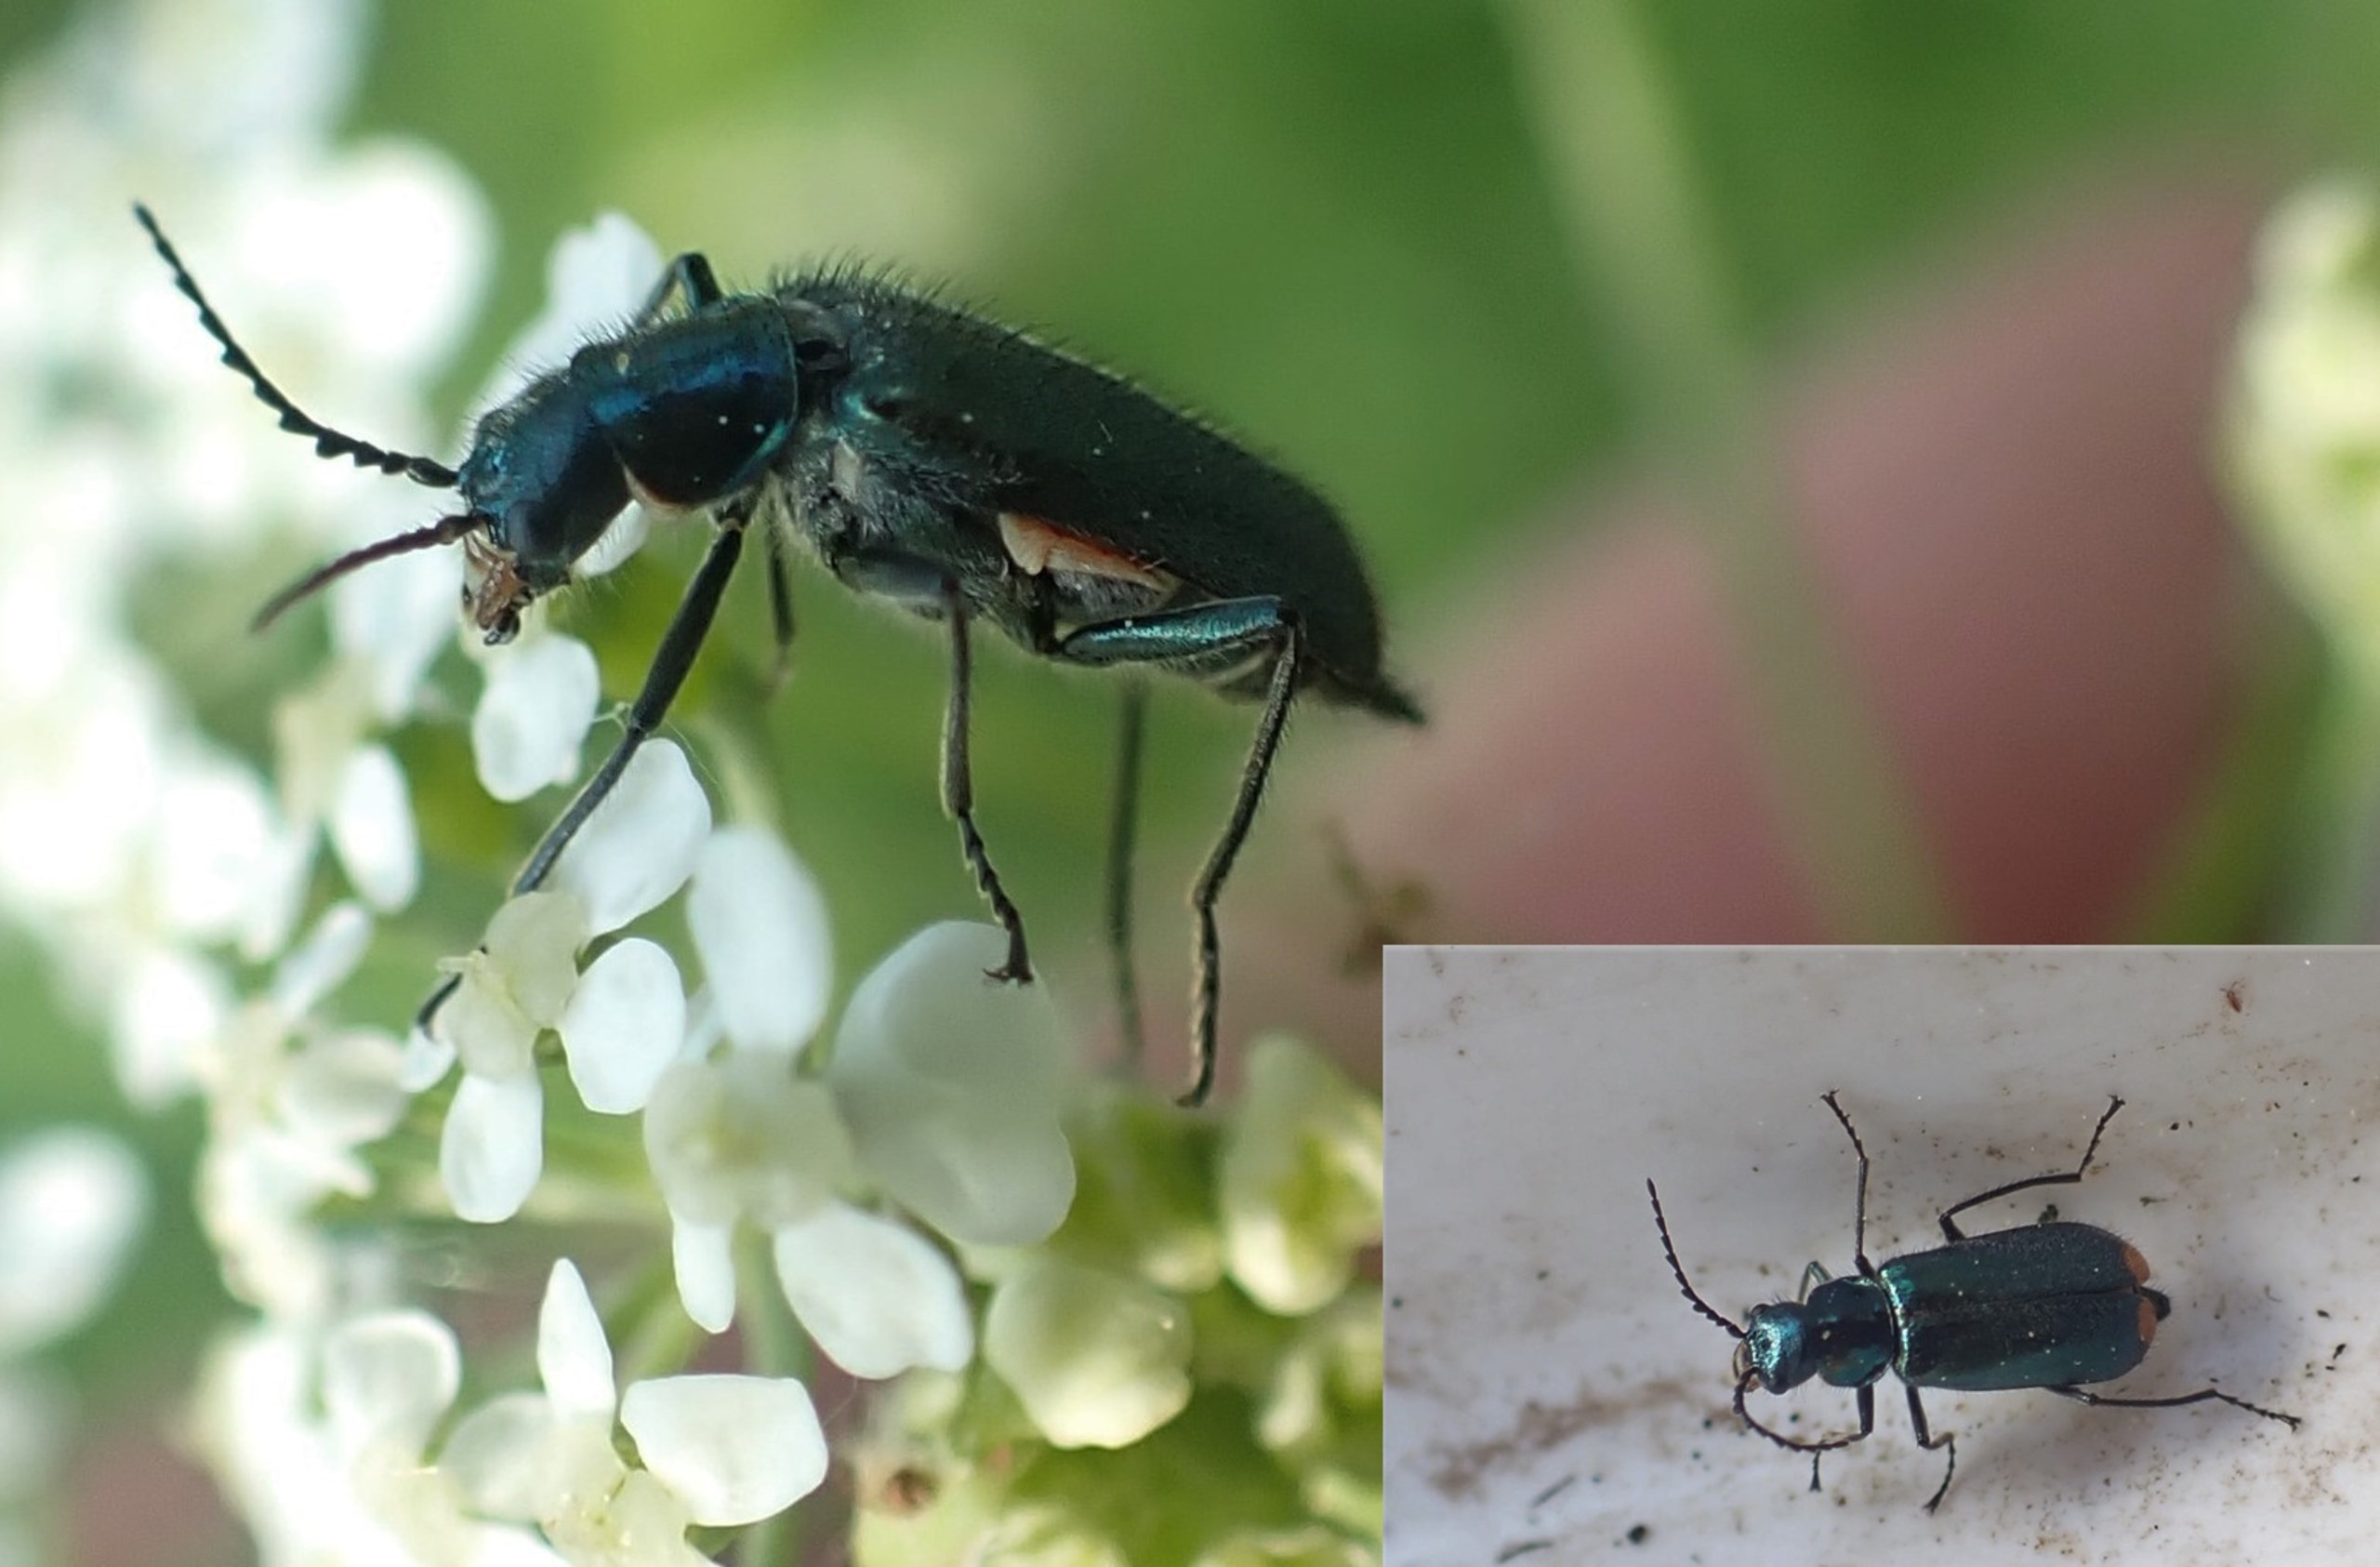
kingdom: Animalia
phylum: Arthropoda
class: Insecta
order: Coleoptera
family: Melyridae
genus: Malachius
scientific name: Malachius bipustulatus
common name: Skovmalakitbille
